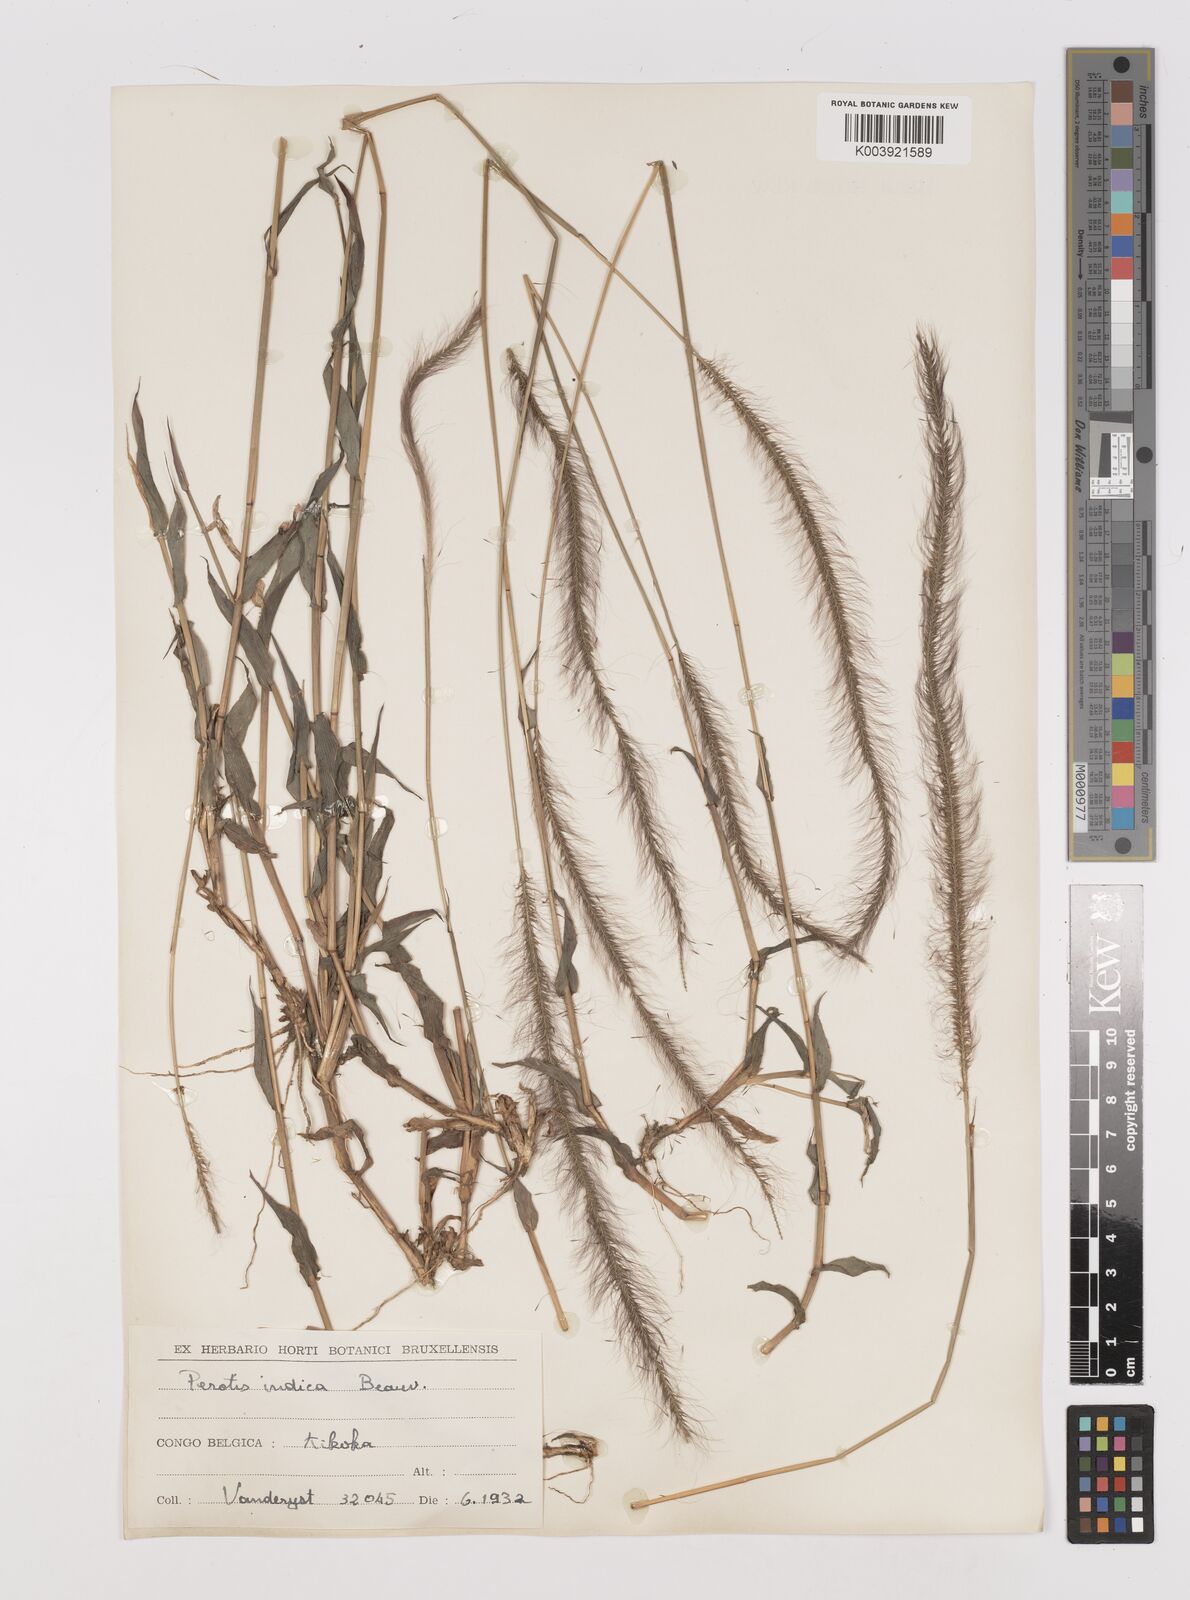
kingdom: Plantae
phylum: Tracheophyta
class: Liliopsida
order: Poales
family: Poaceae
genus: Perotis
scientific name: Perotis patens
